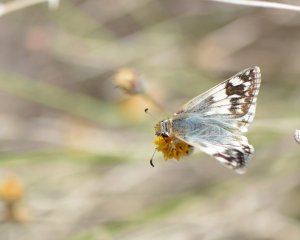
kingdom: Animalia
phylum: Arthropoda
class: Insecta
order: Lepidoptera
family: Hesperiidae
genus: Heliopyrgus
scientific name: Heliopyrgus domicella
